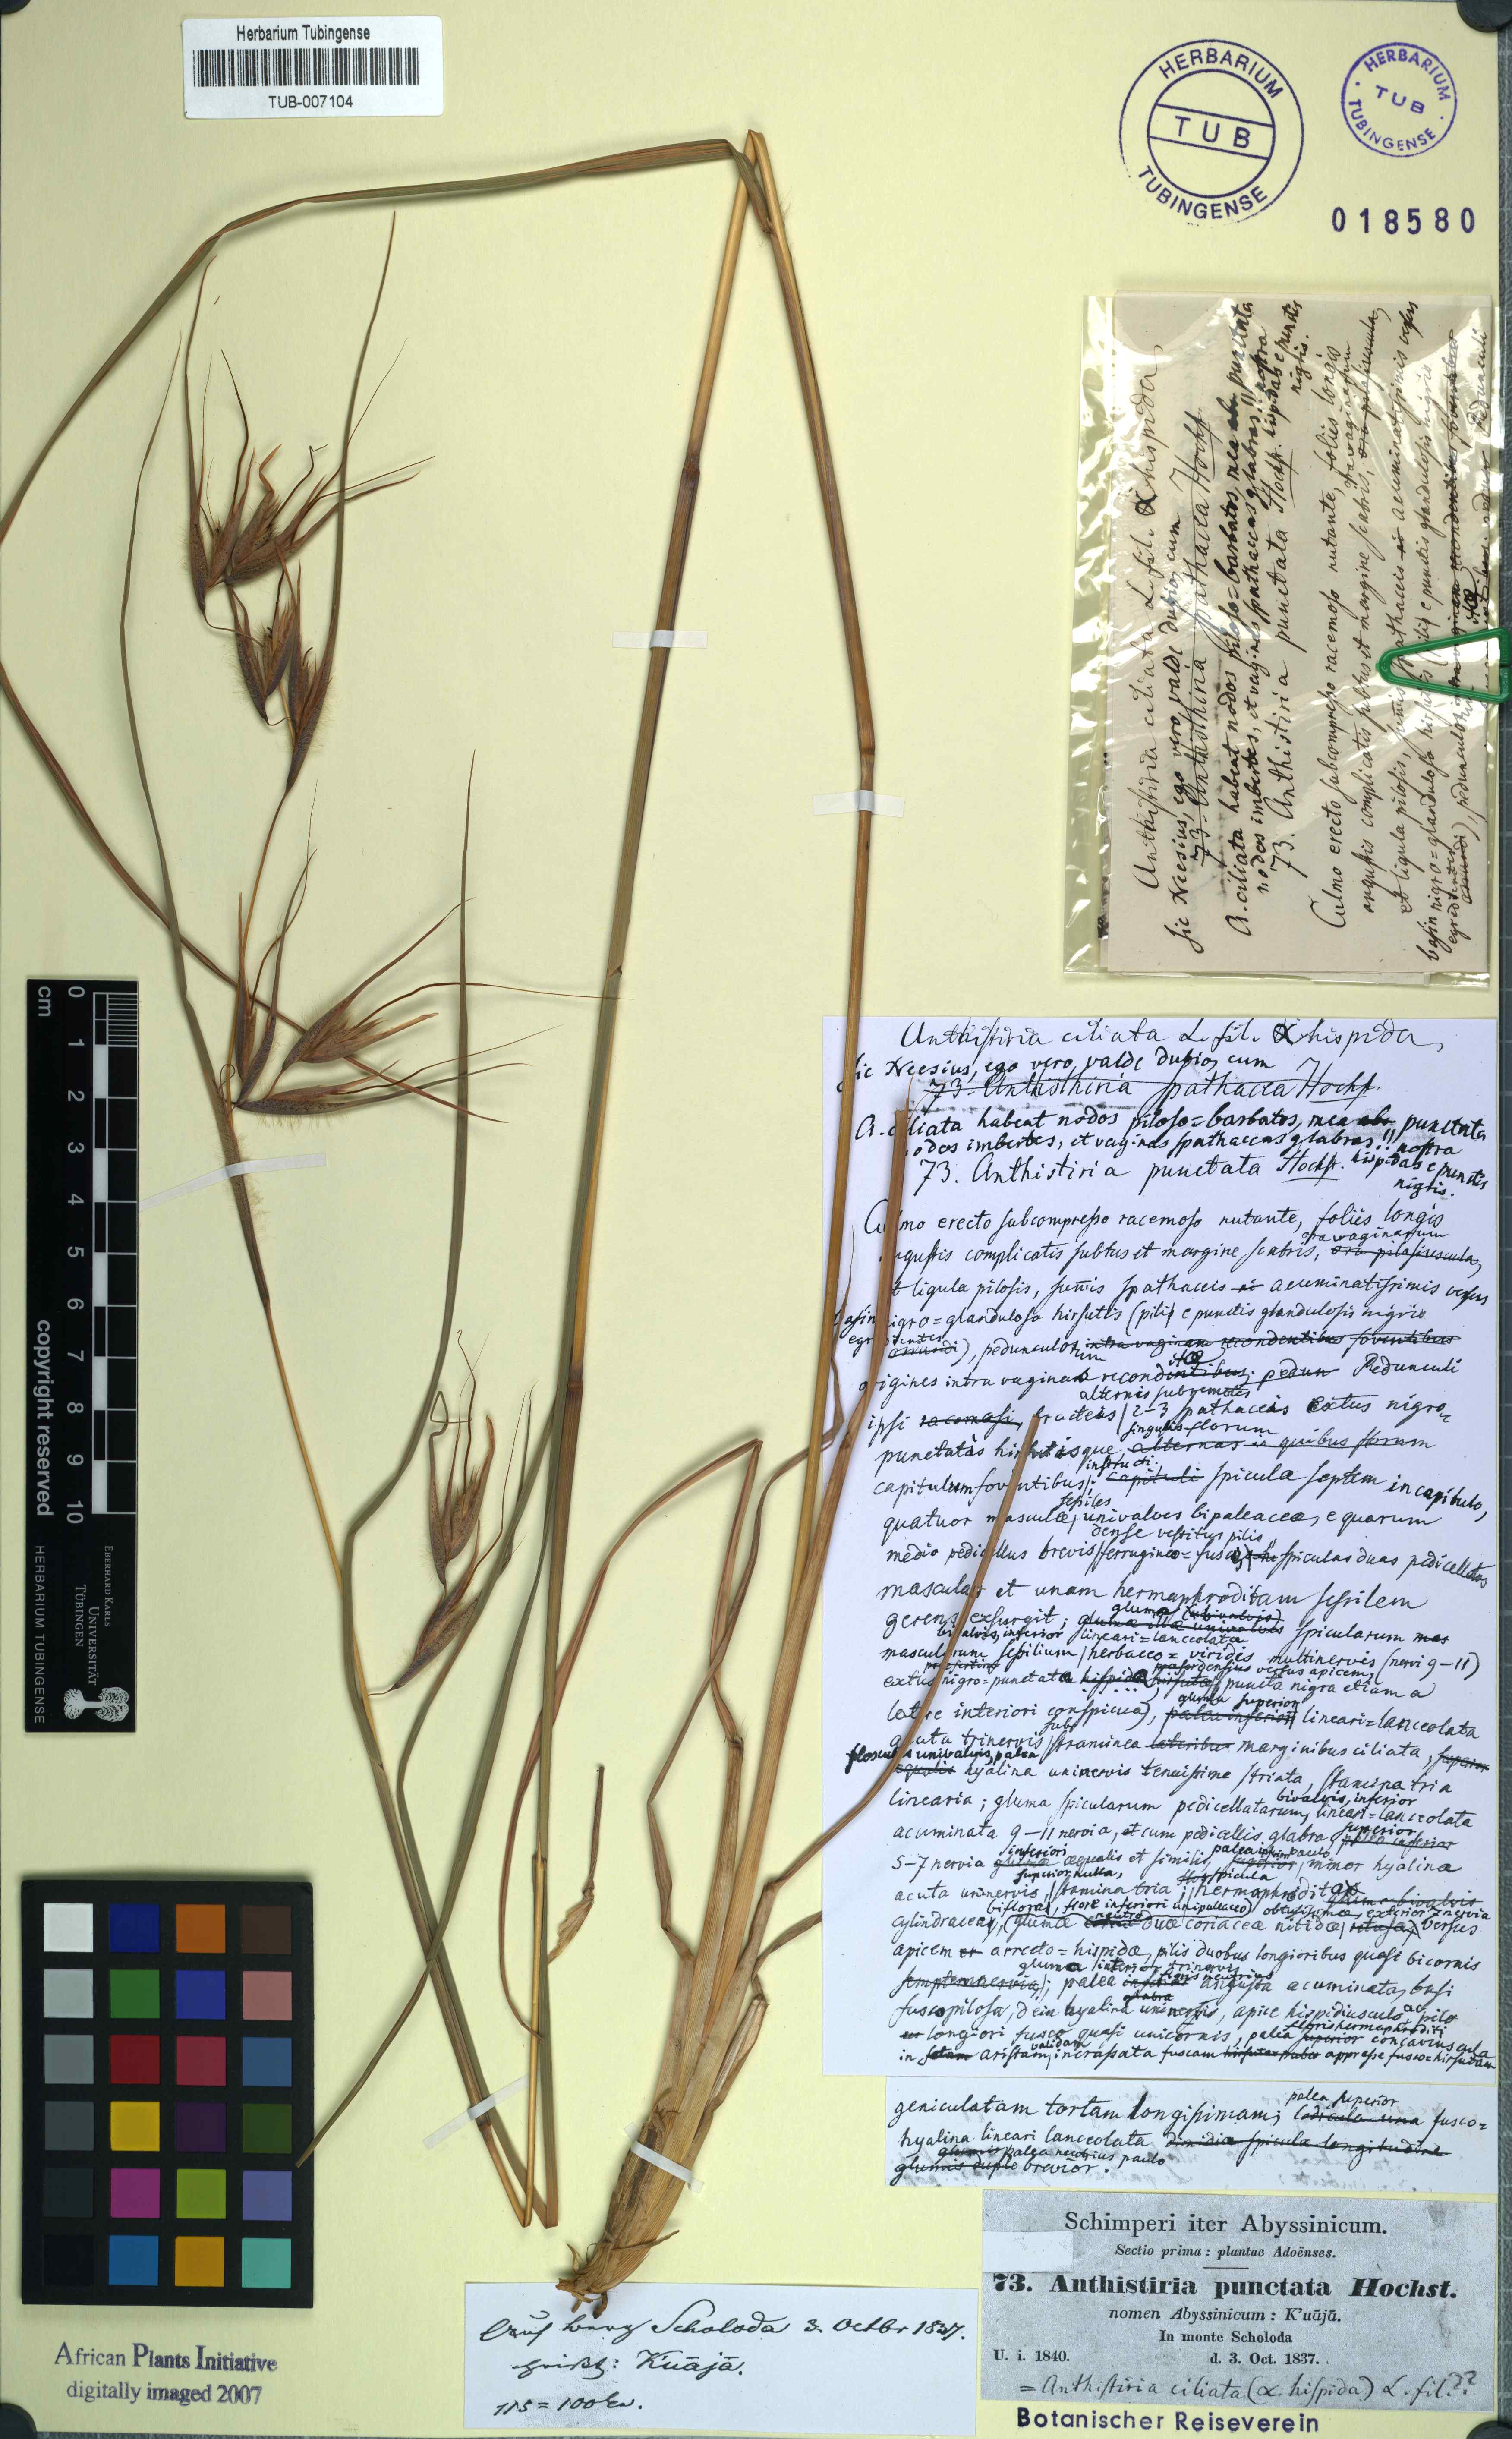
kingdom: Plantae
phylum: Tracheophyta
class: Liliopsida
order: Poales
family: Poaceae
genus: Themeda
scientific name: Themeda triandra
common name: Kangaroo grass
